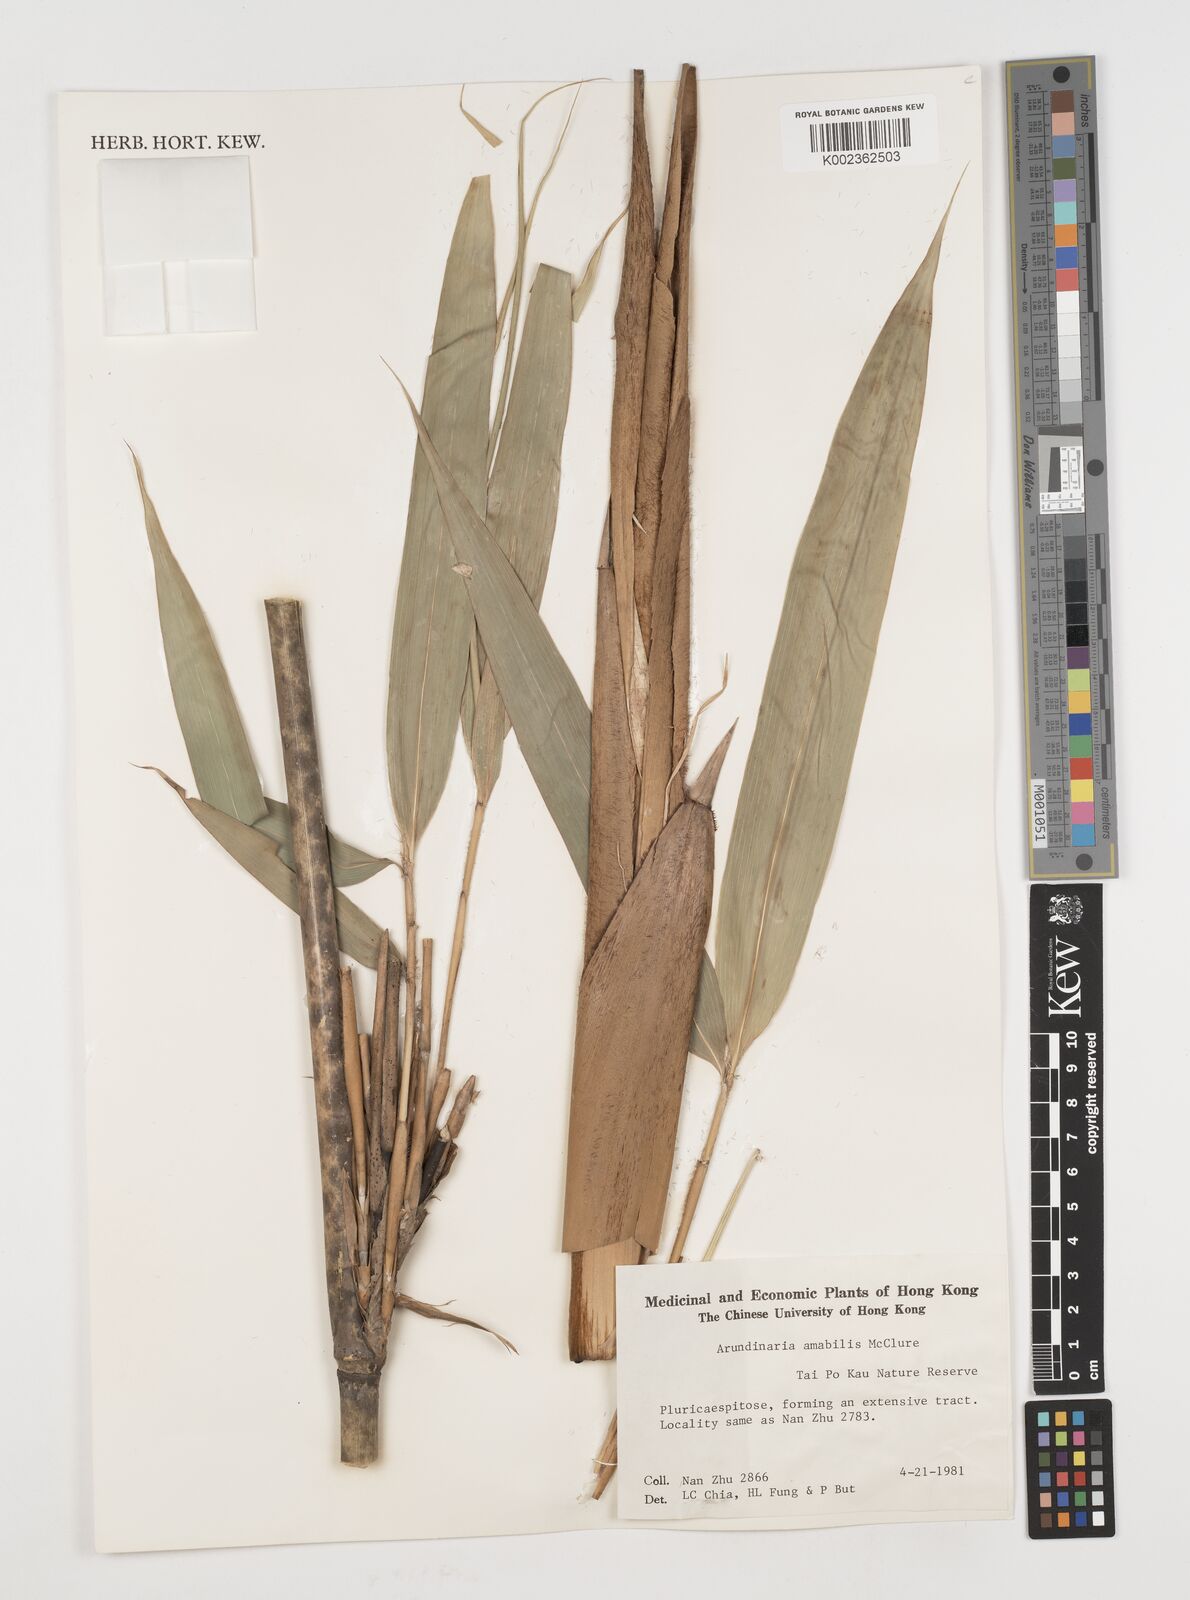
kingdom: Plantae
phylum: Tracheophyta
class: Liliopsida
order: Poales
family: Poaceae
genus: Pseudosasa
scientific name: Pseudosasa amabilis
